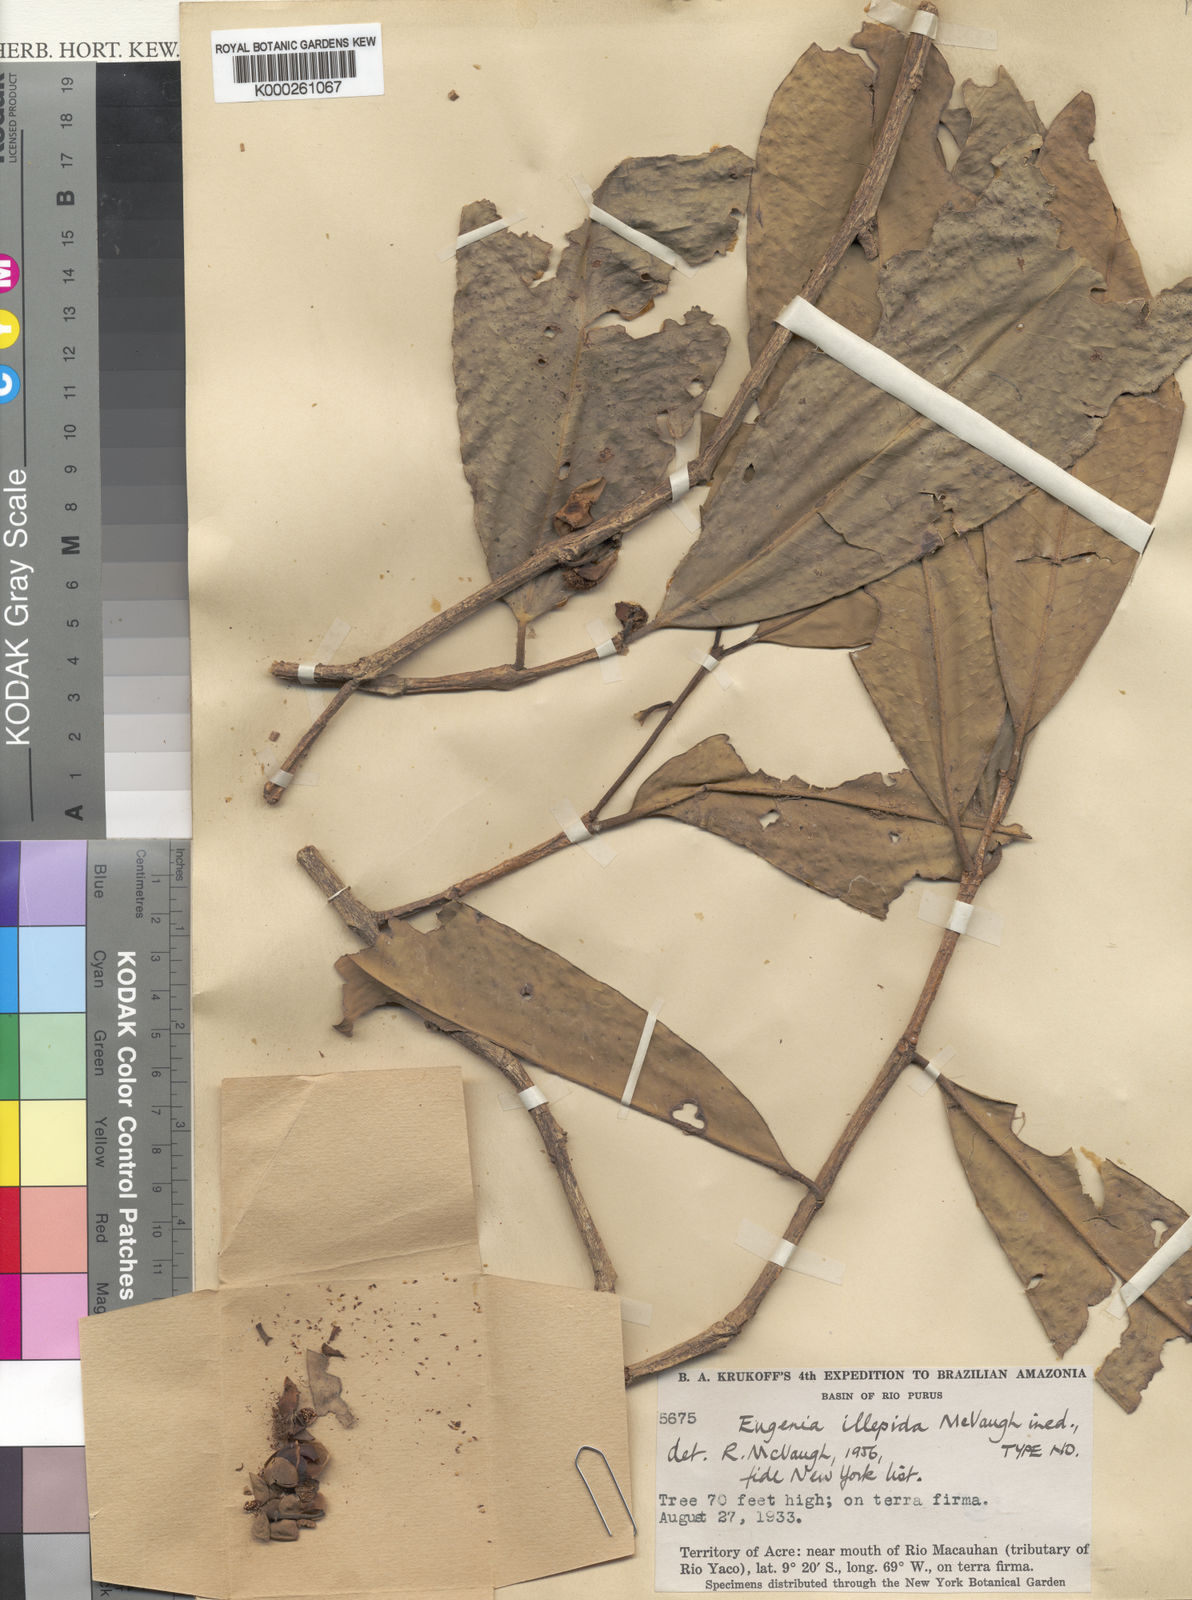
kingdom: Plantae
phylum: Tracheophyta
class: Magnoliopsida
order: Myrtales
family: Myrtaceae
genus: Eugenia
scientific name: Eugenia illepida
